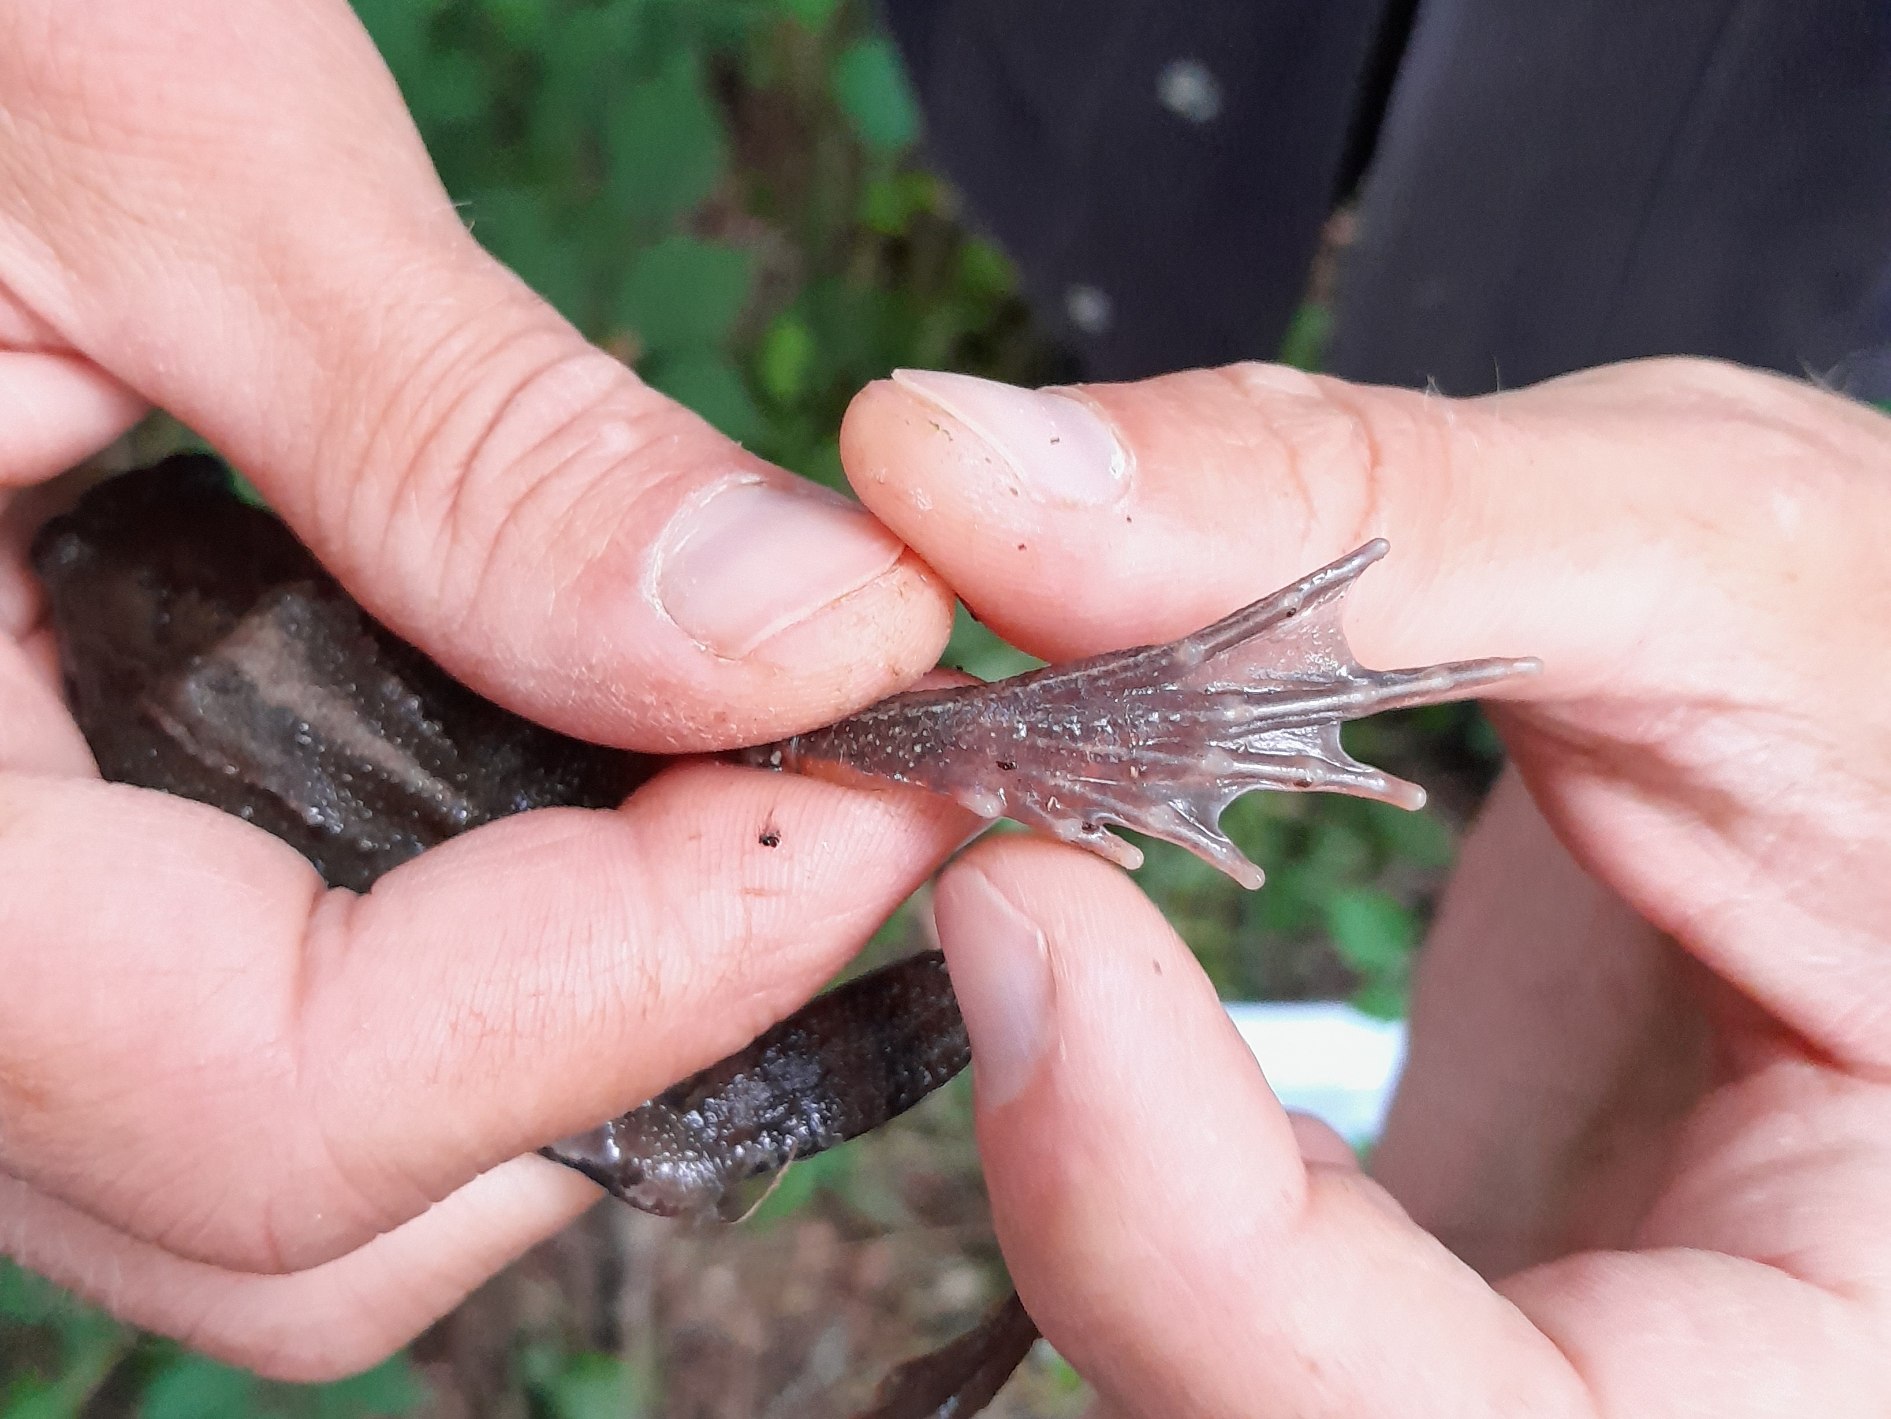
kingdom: Animalia
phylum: Chordata
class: Amphibia
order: Anura
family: Ranidae
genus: Rana
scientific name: Rana temporaria
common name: Butsnudet frø
